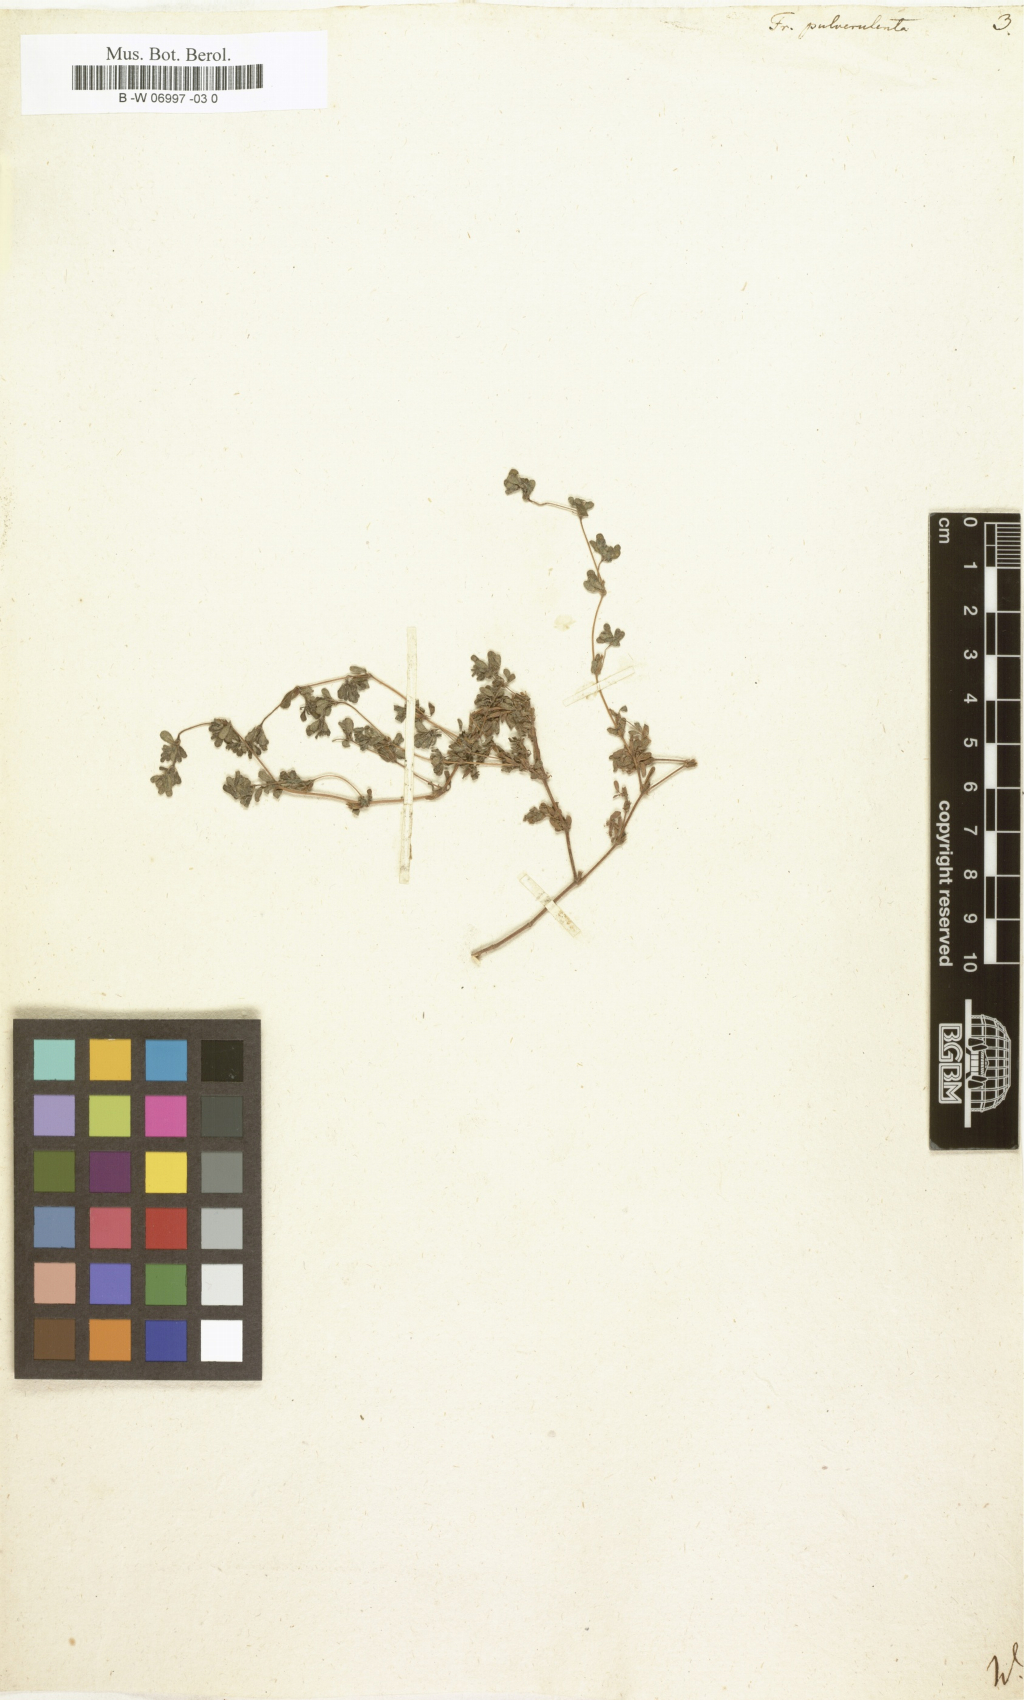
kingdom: Plantae
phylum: Tracheophyta
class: Magnoliopsida
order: Caryophyllales
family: Frankeniaceae
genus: Frankenia
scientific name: Frankenia pulverulenta
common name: European seaheath
